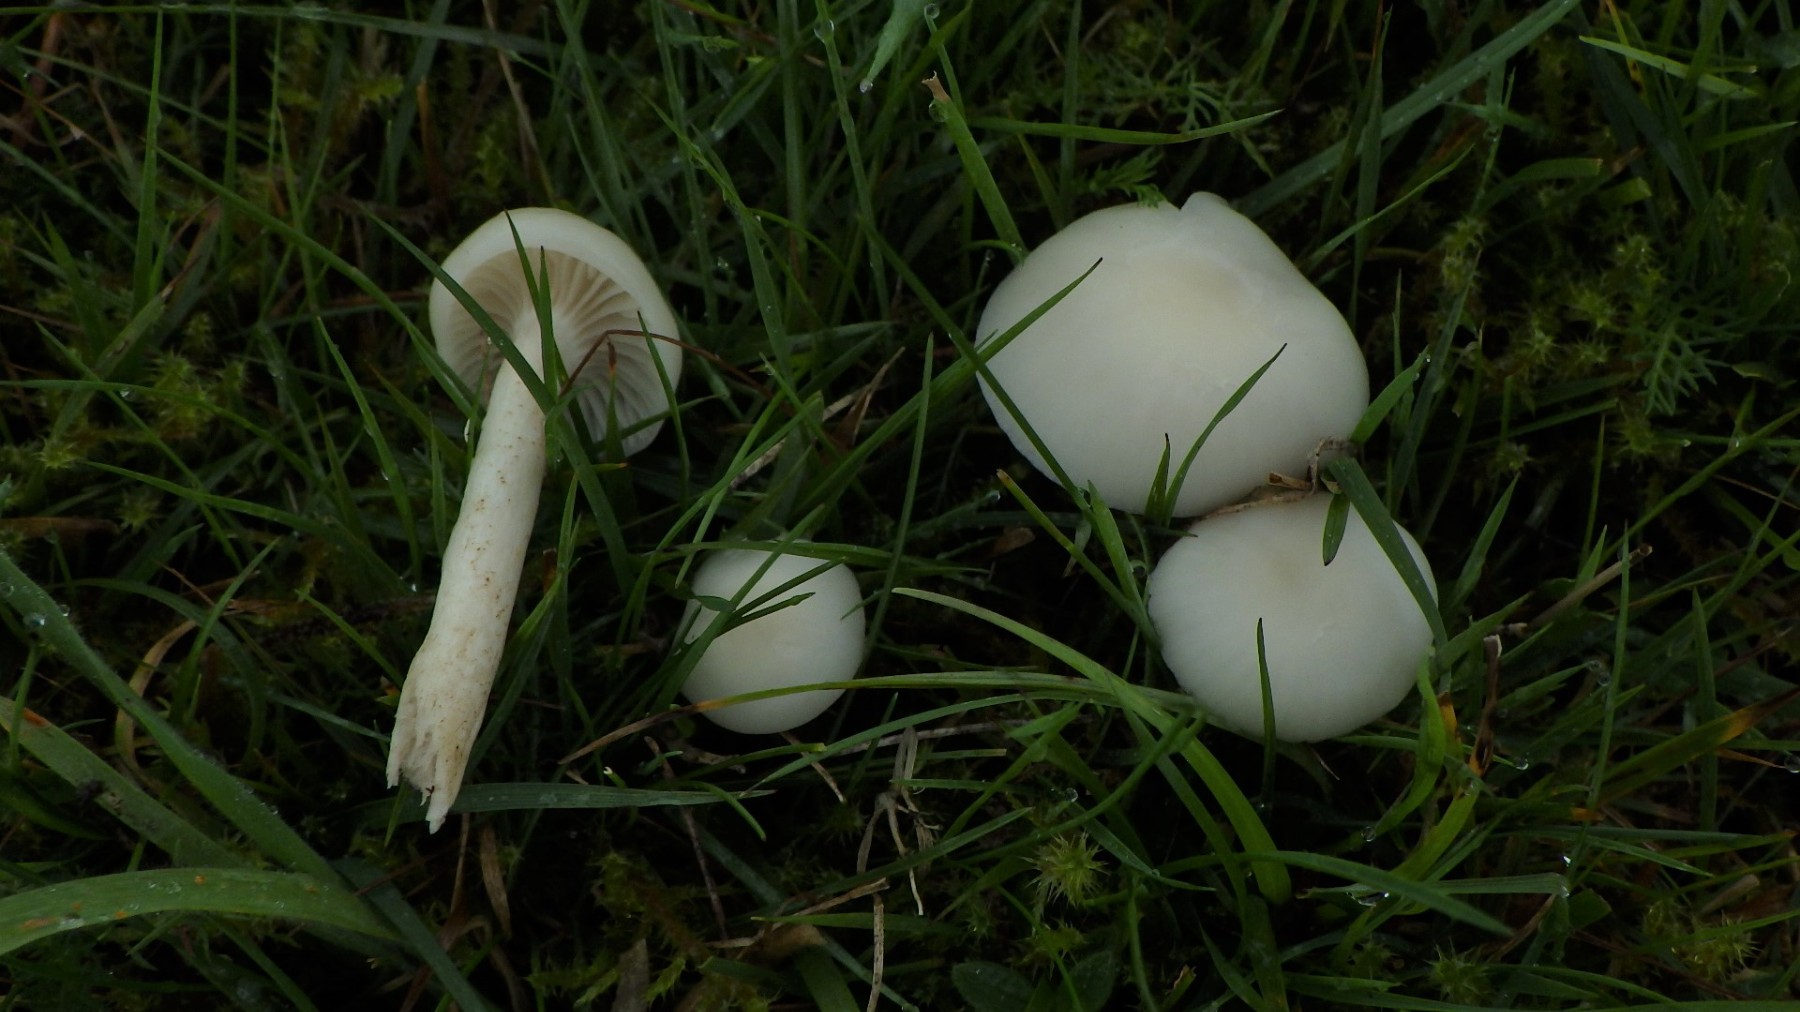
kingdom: Fungi
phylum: Basidiomycota
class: Agaricomycetes
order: Agaricales
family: Hygrophoraceae
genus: Cuphophyllus
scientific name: Cuphophyllus virgineus
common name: snehvid vokshat
